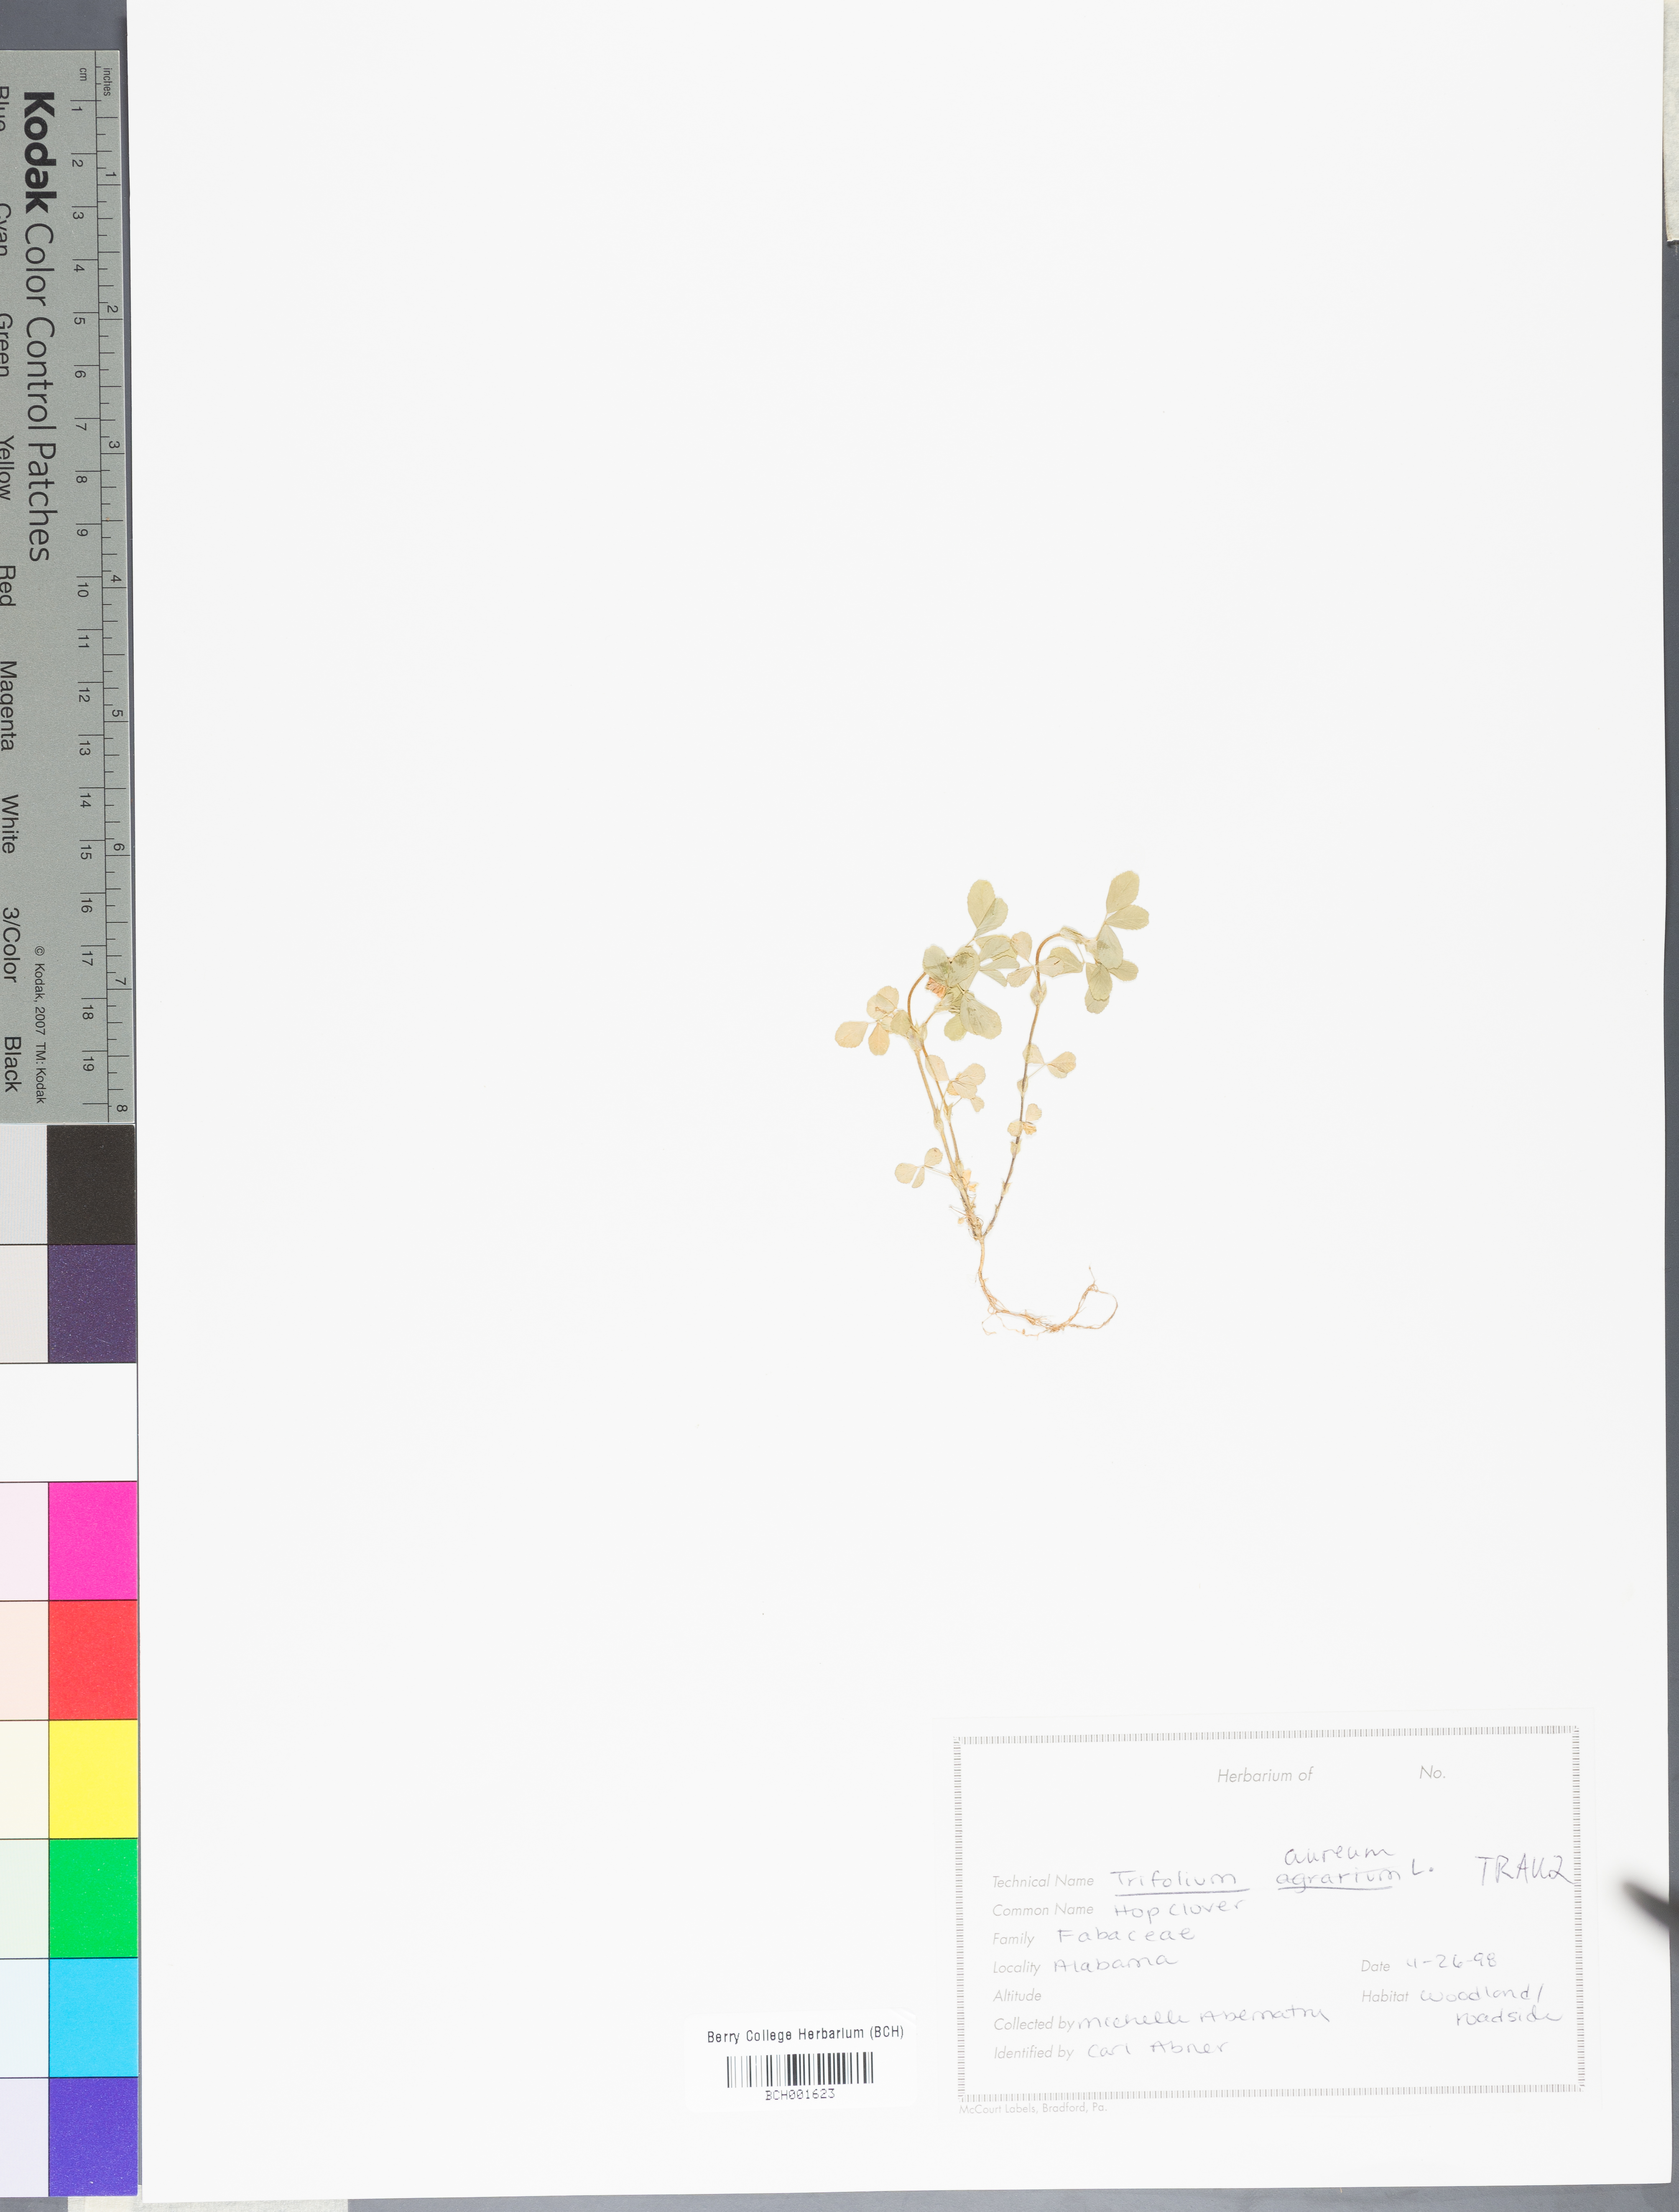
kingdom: Plantae
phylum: Tracheophyta
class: Magnoliopsida
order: Fabales
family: Fabaceae
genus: Trifolium
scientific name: Trifolium aureum
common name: Golden clover
